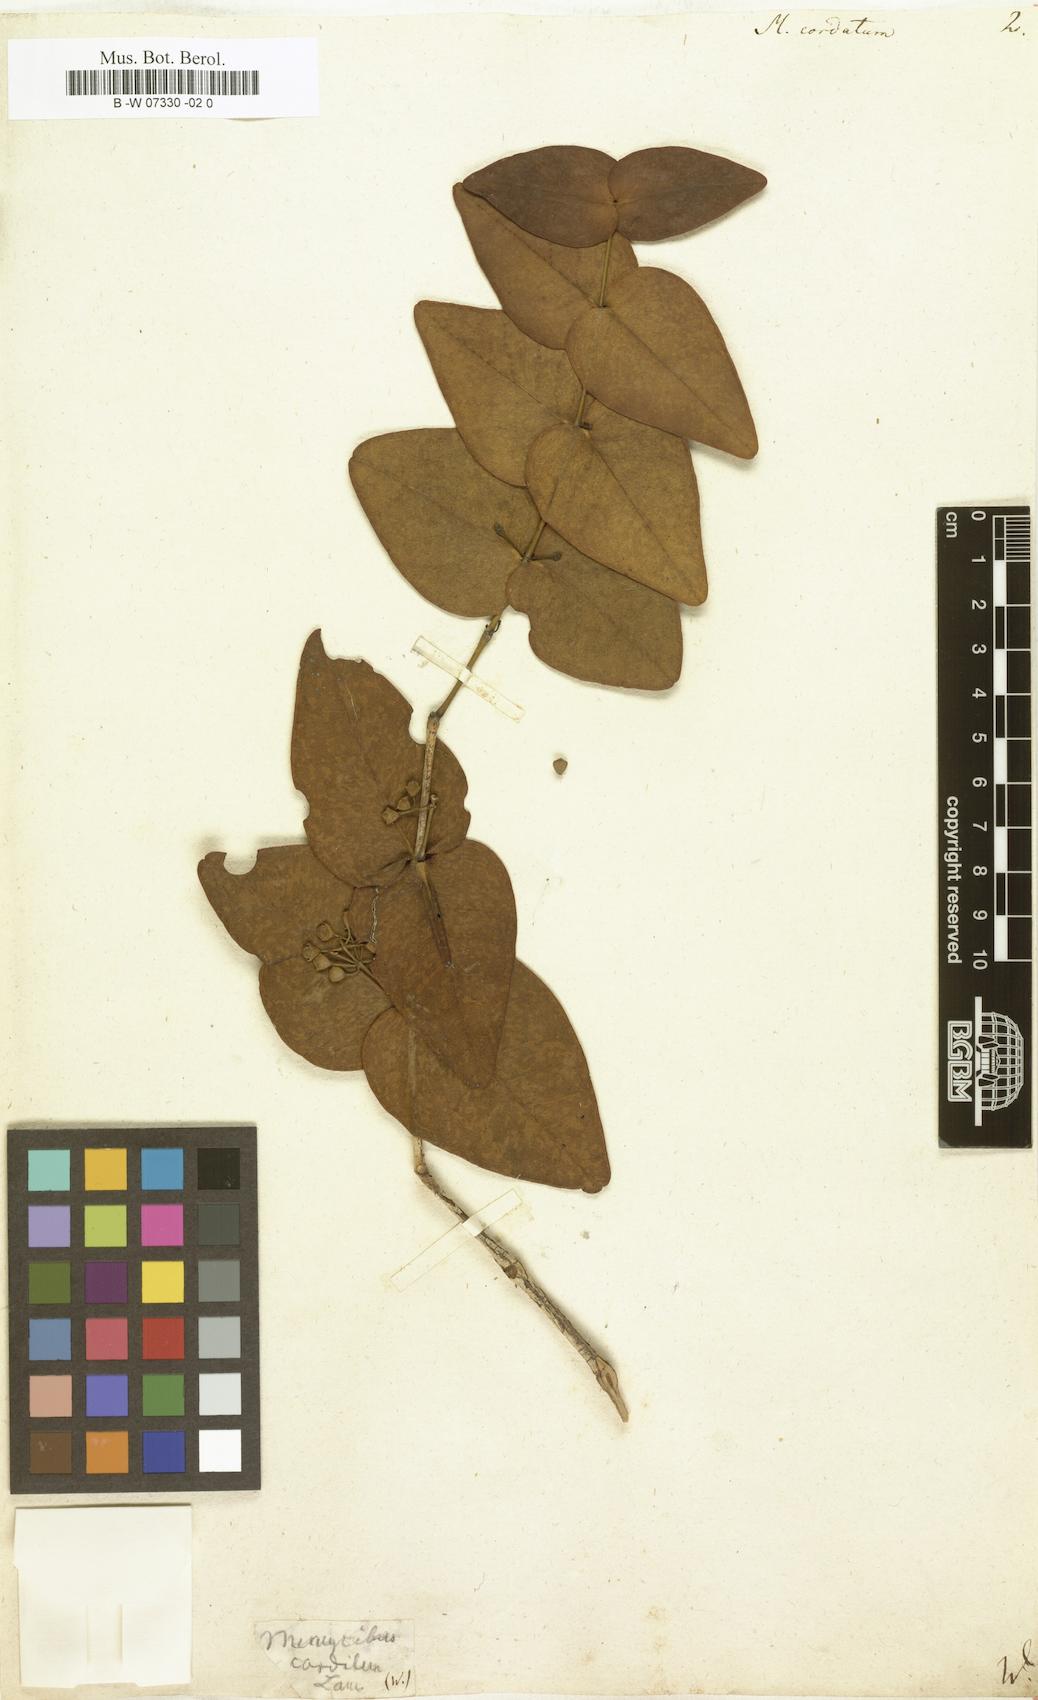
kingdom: Plantae
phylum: Tracheophyta
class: Magnoliopsida
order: Myrtales
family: Melastomataceae
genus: Memecylon
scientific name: Memecylon cordatum
